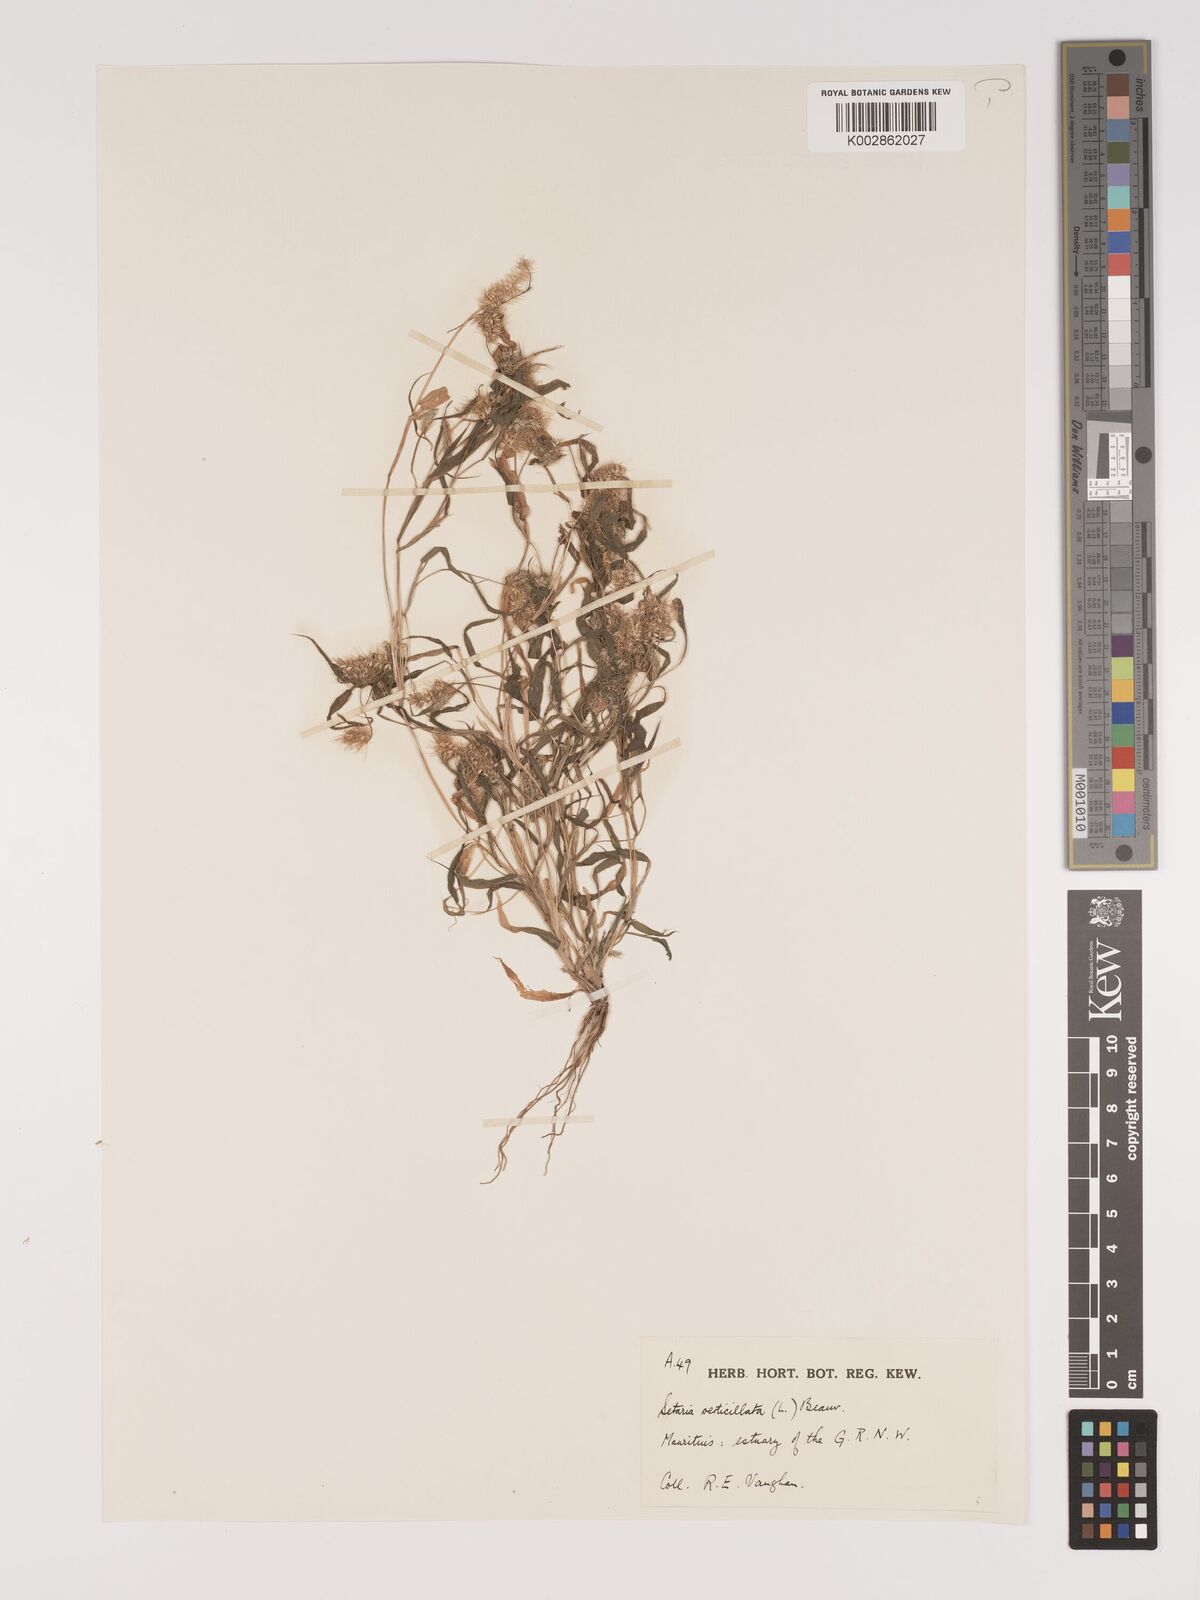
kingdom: Plantae
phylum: Tracheophyta
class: Liliopsida
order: Poales
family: Poaceae
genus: Setaria
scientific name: Setaria verticillata
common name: Hooked bristlegrass
